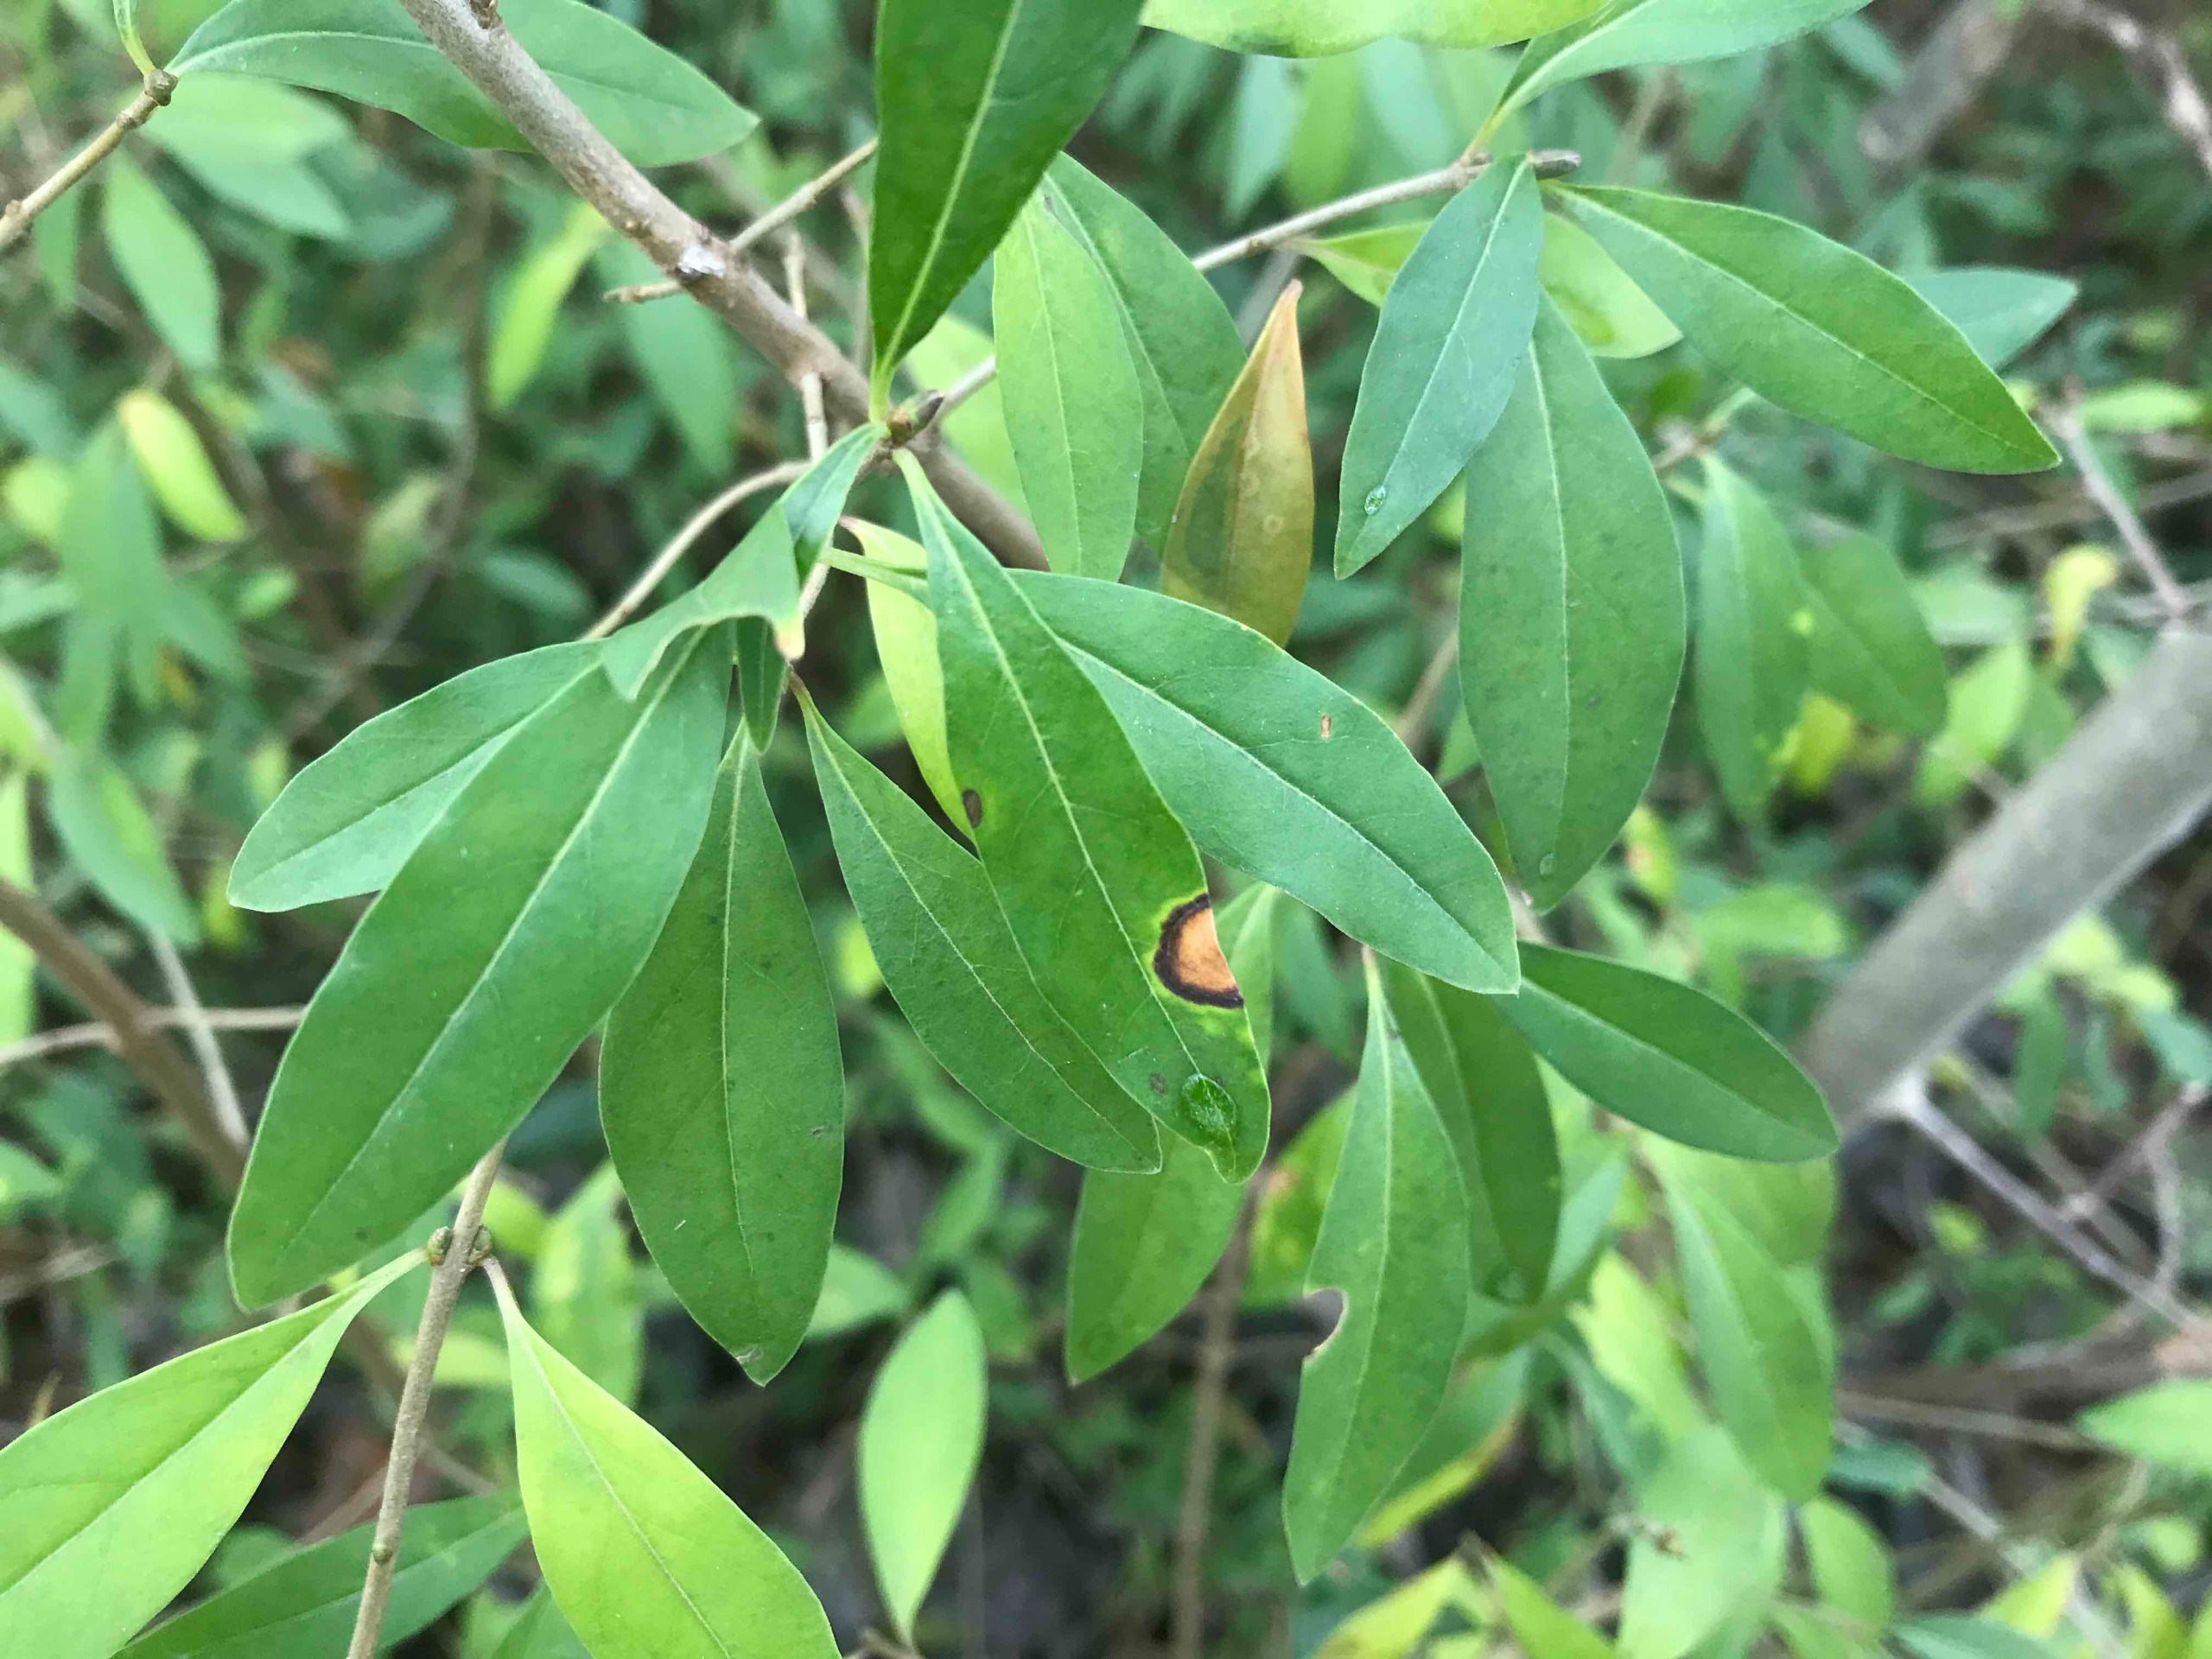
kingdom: Plantae
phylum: Tracheophyta
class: Magnoliopsida
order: Lamiales
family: Oleaceae
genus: Ligustrum
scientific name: Ligustrum vulgare
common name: Liguster
